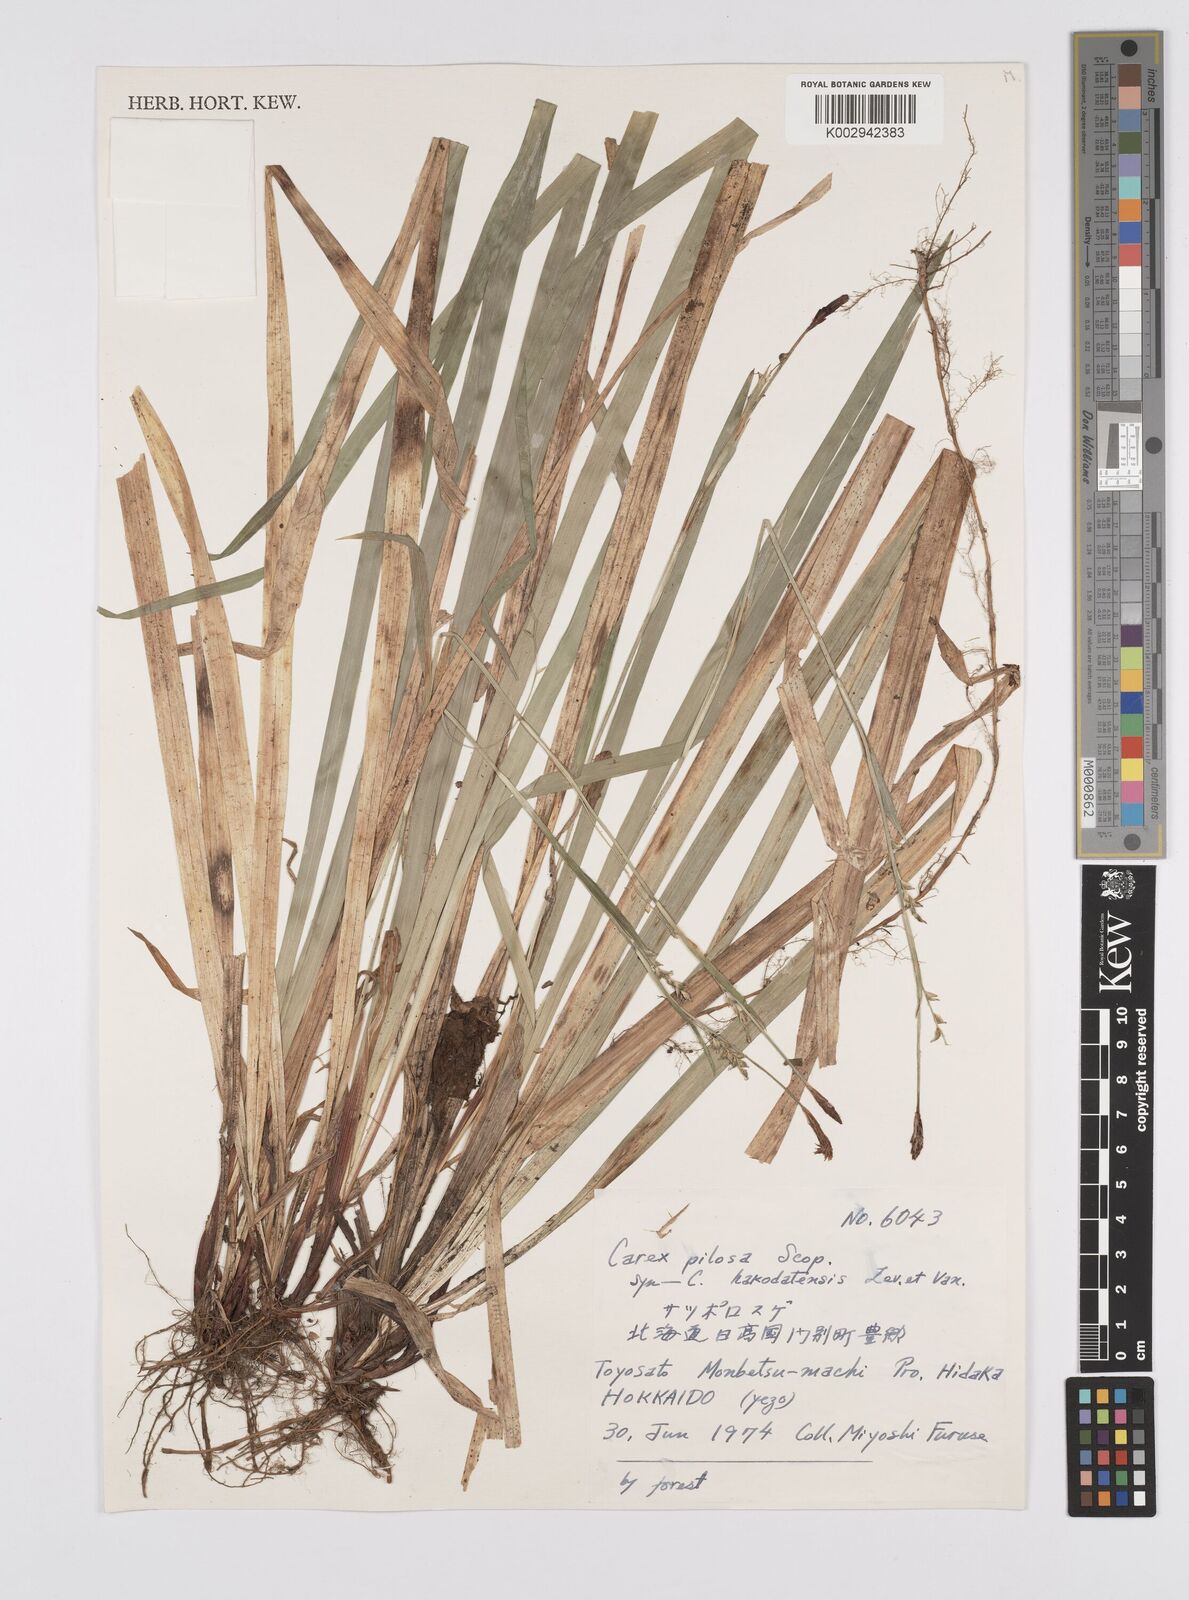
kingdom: Plantae
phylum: Tracheophyta
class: Liliopsida
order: Poales
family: Cyperaceae
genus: Carex
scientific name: Carex pilosa
